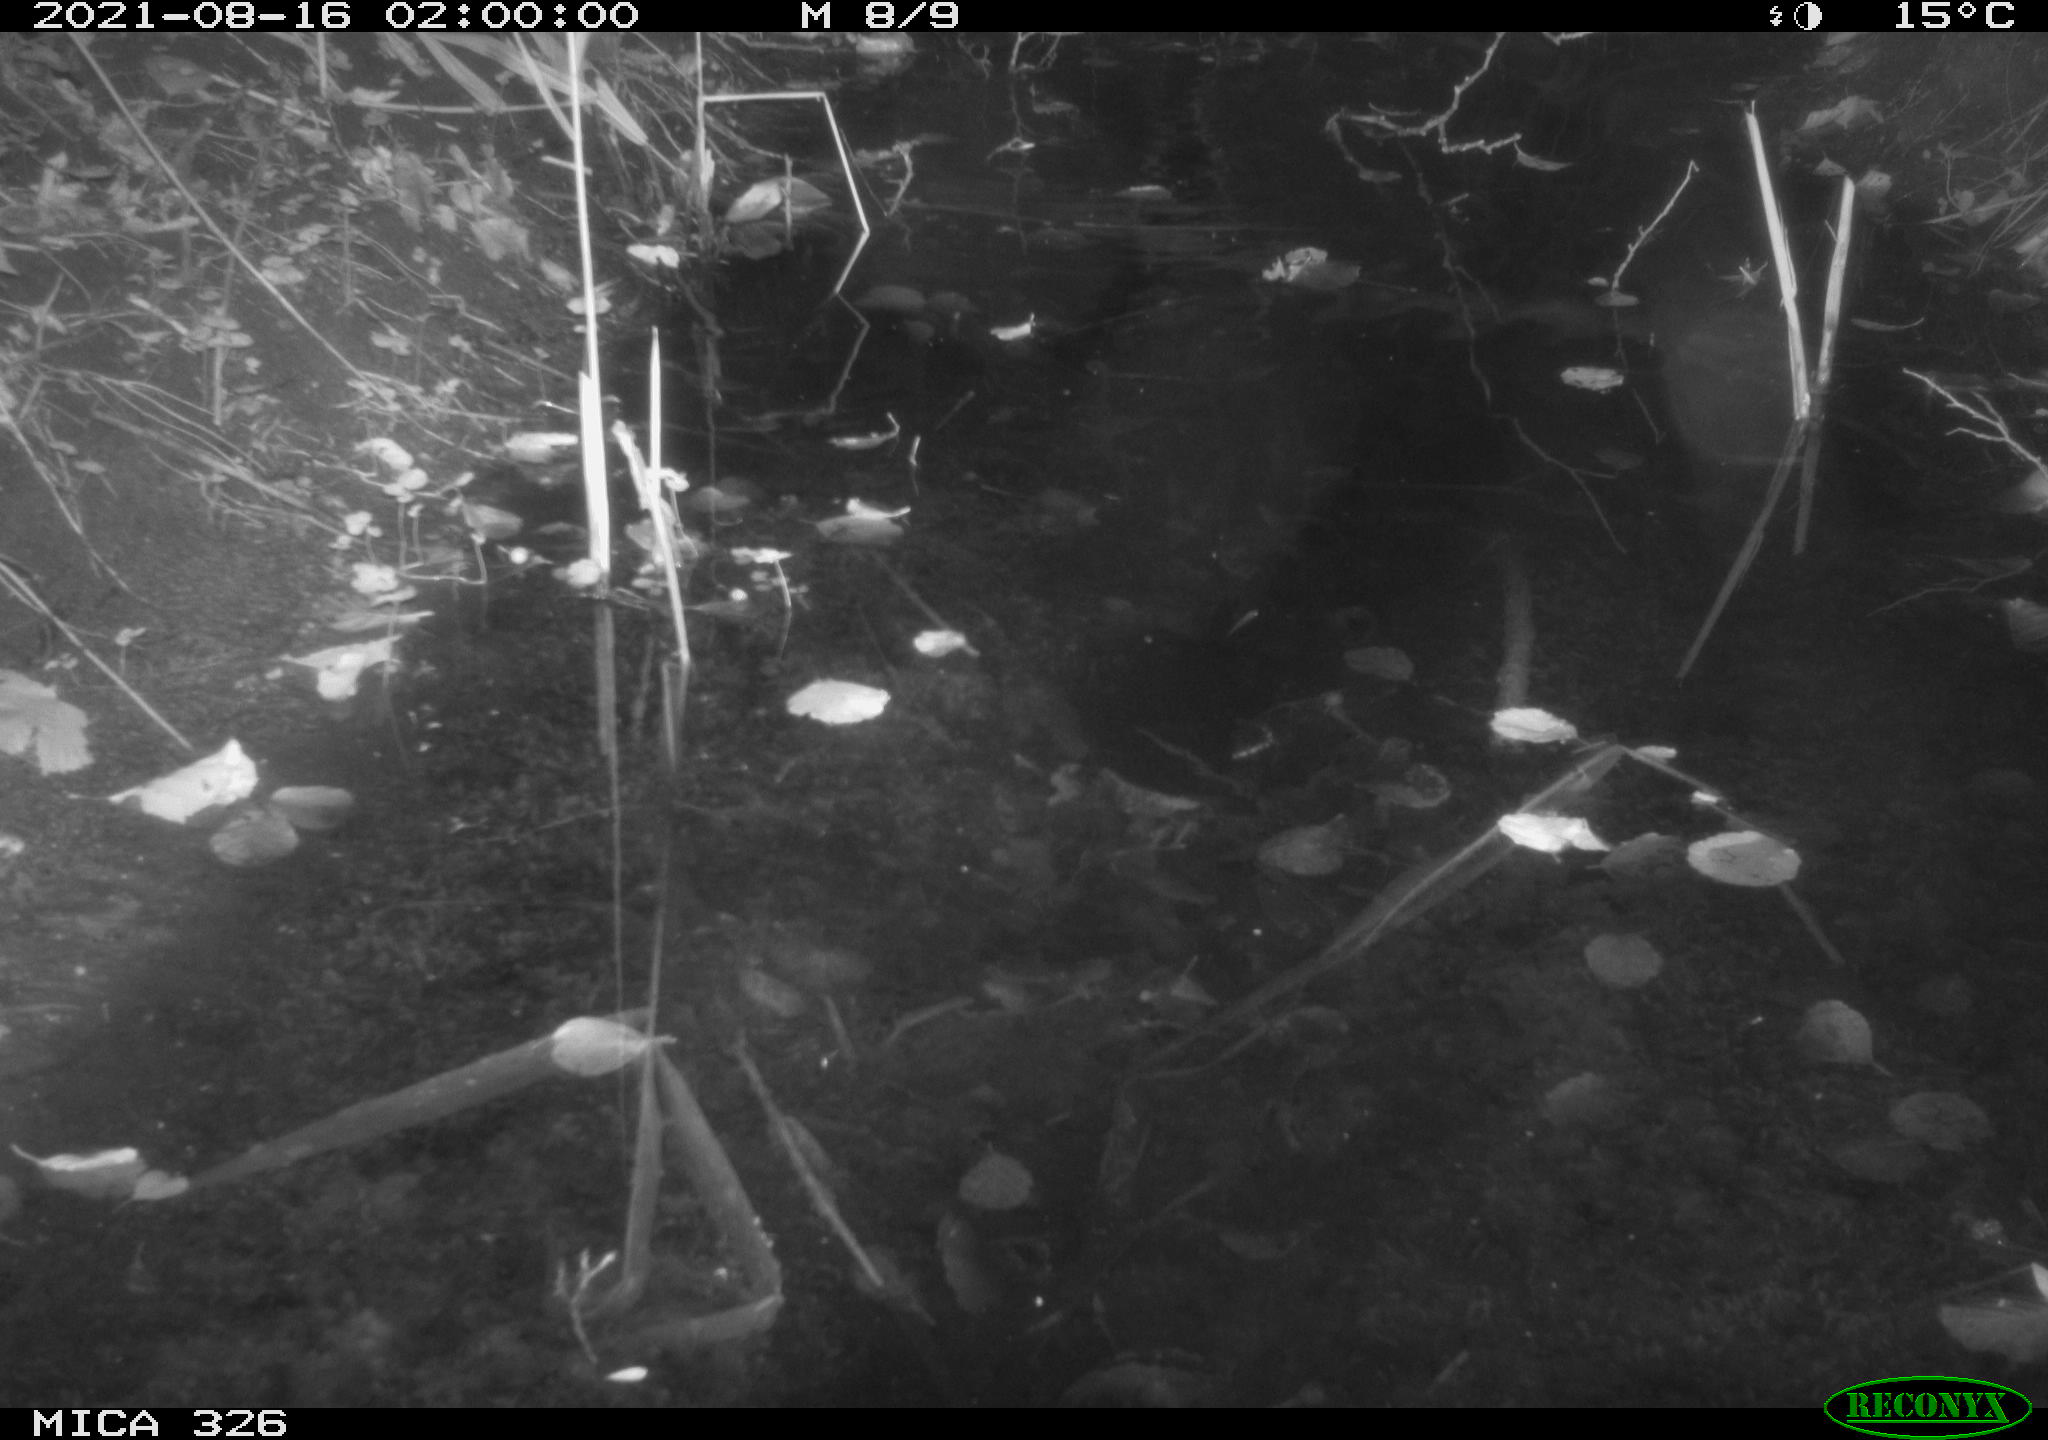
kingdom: Animalia
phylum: Chordata
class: Mammalia
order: Rodentia
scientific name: Rodentia
